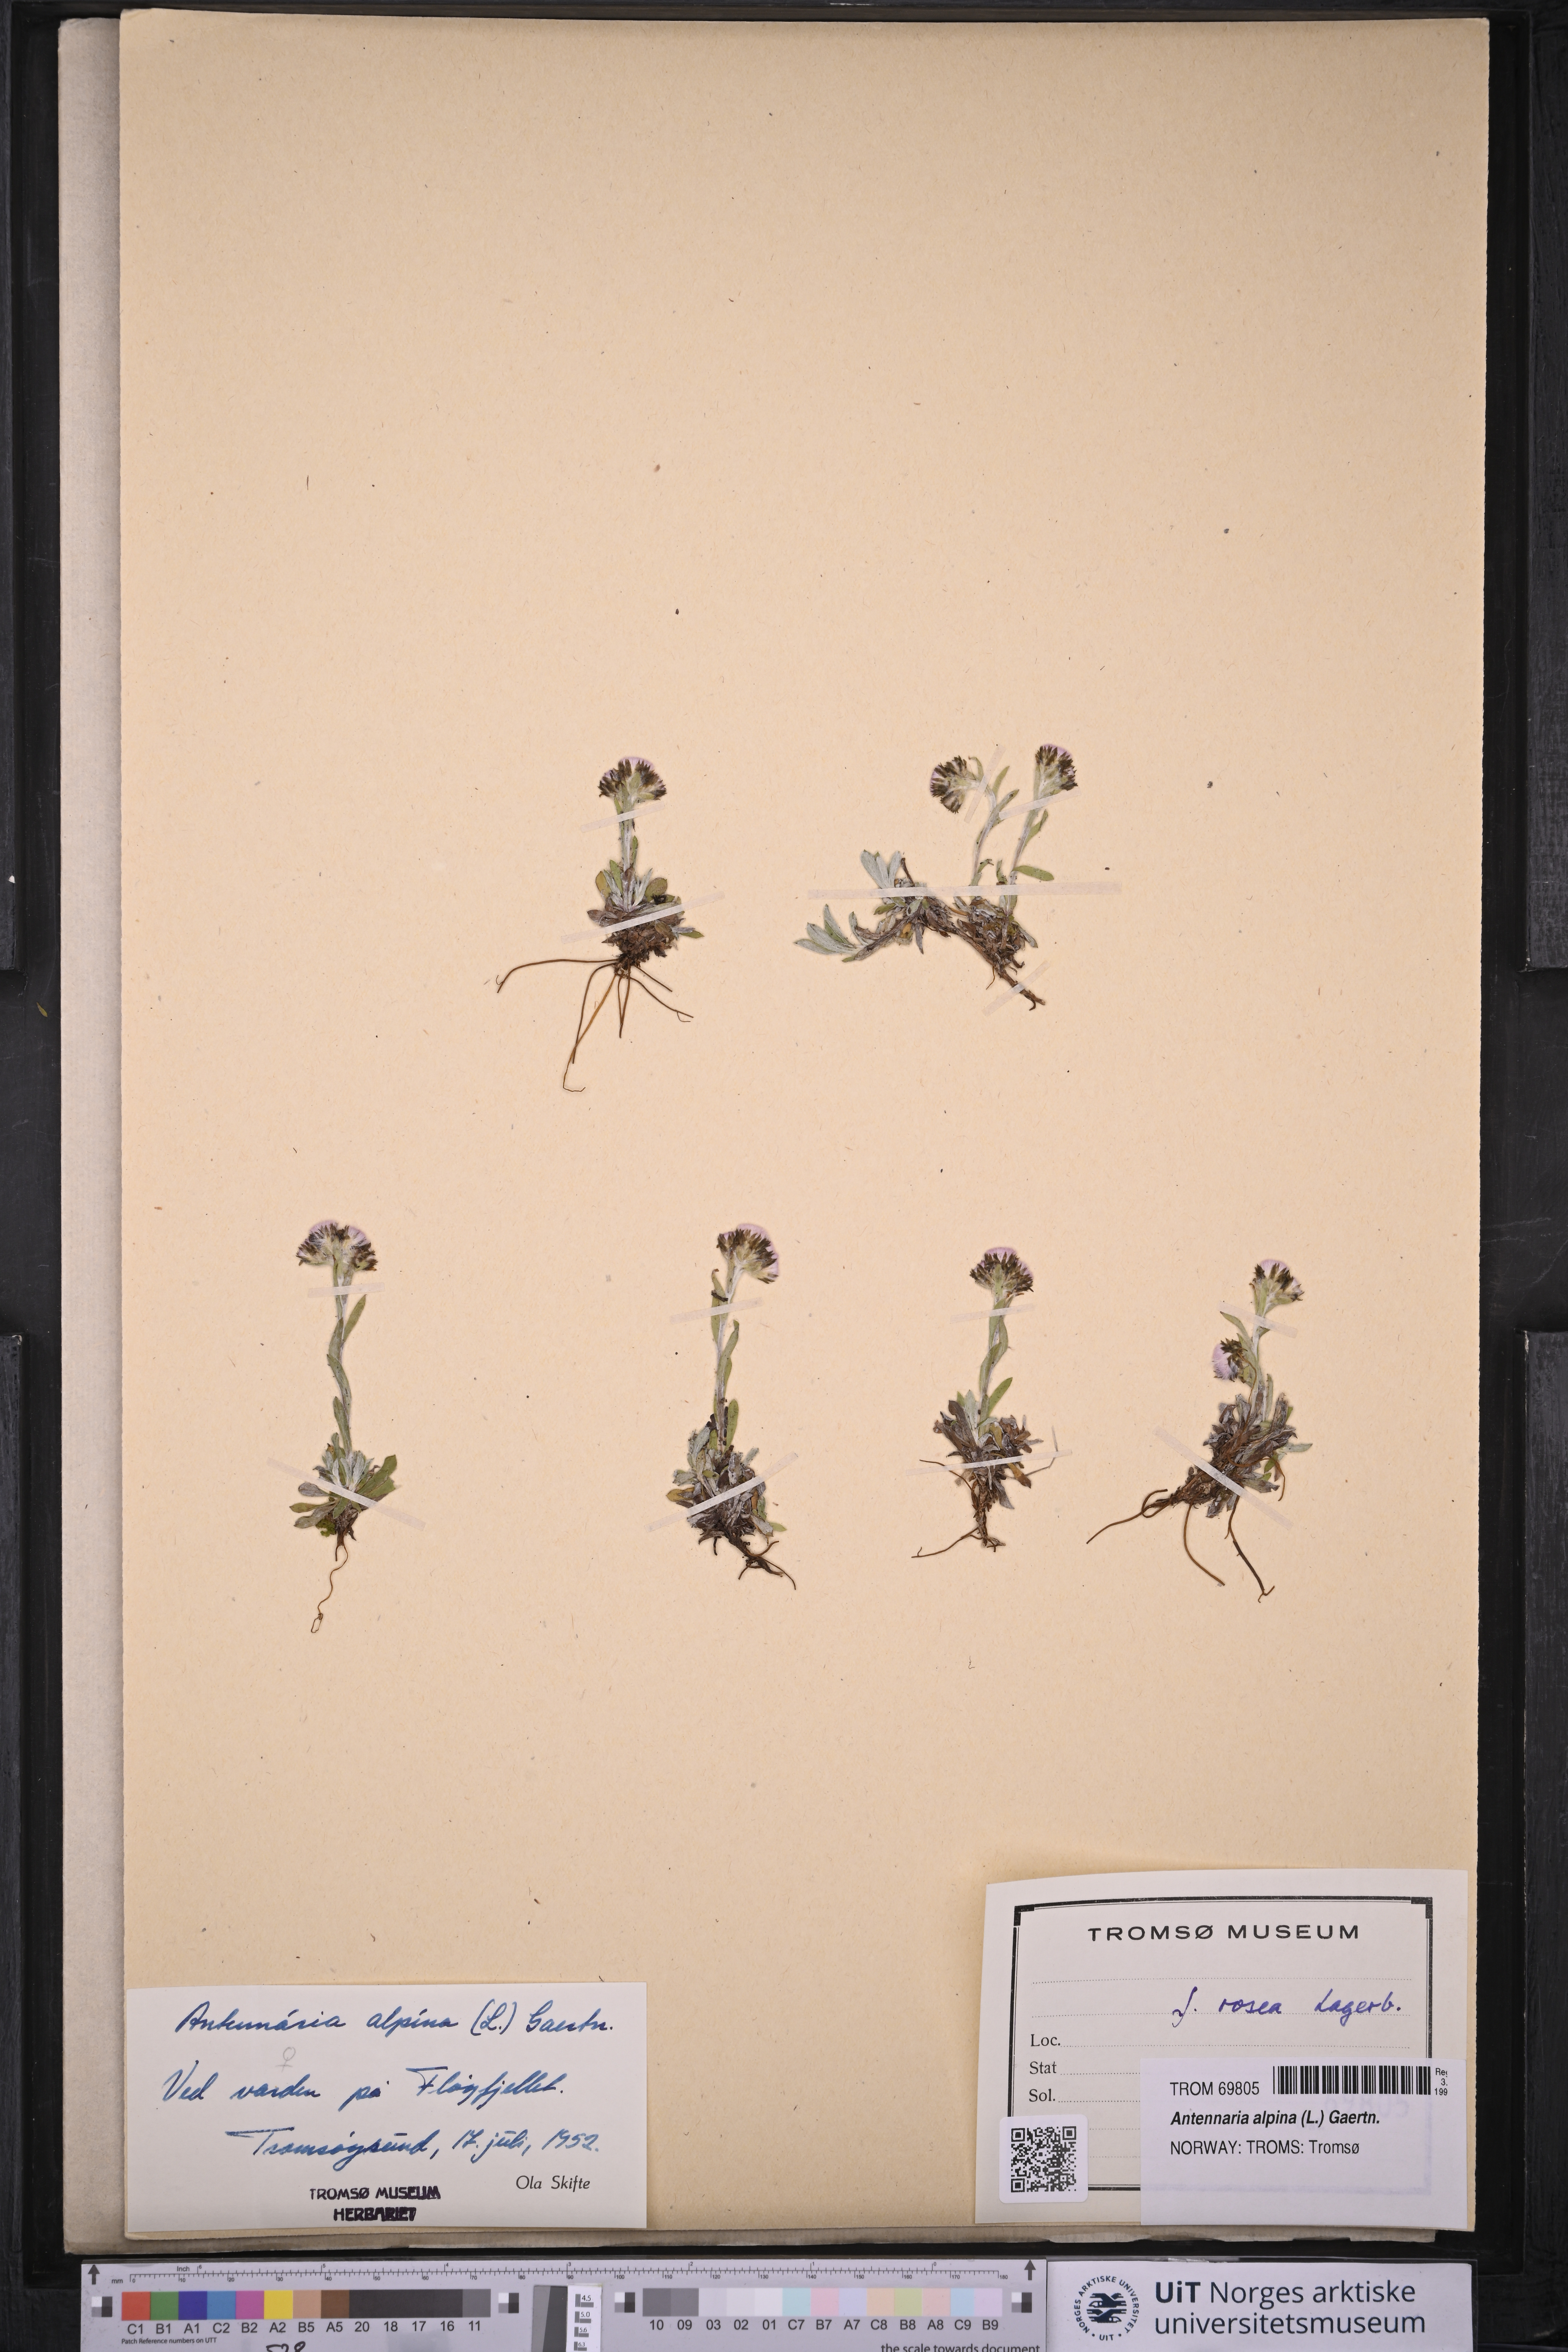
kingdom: Plantae
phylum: Tracheophyta
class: Magnoliopsida
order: Asterales
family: Asteraceae
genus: Antennaria
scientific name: Antennaria alpina
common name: Alpine pussytoes
